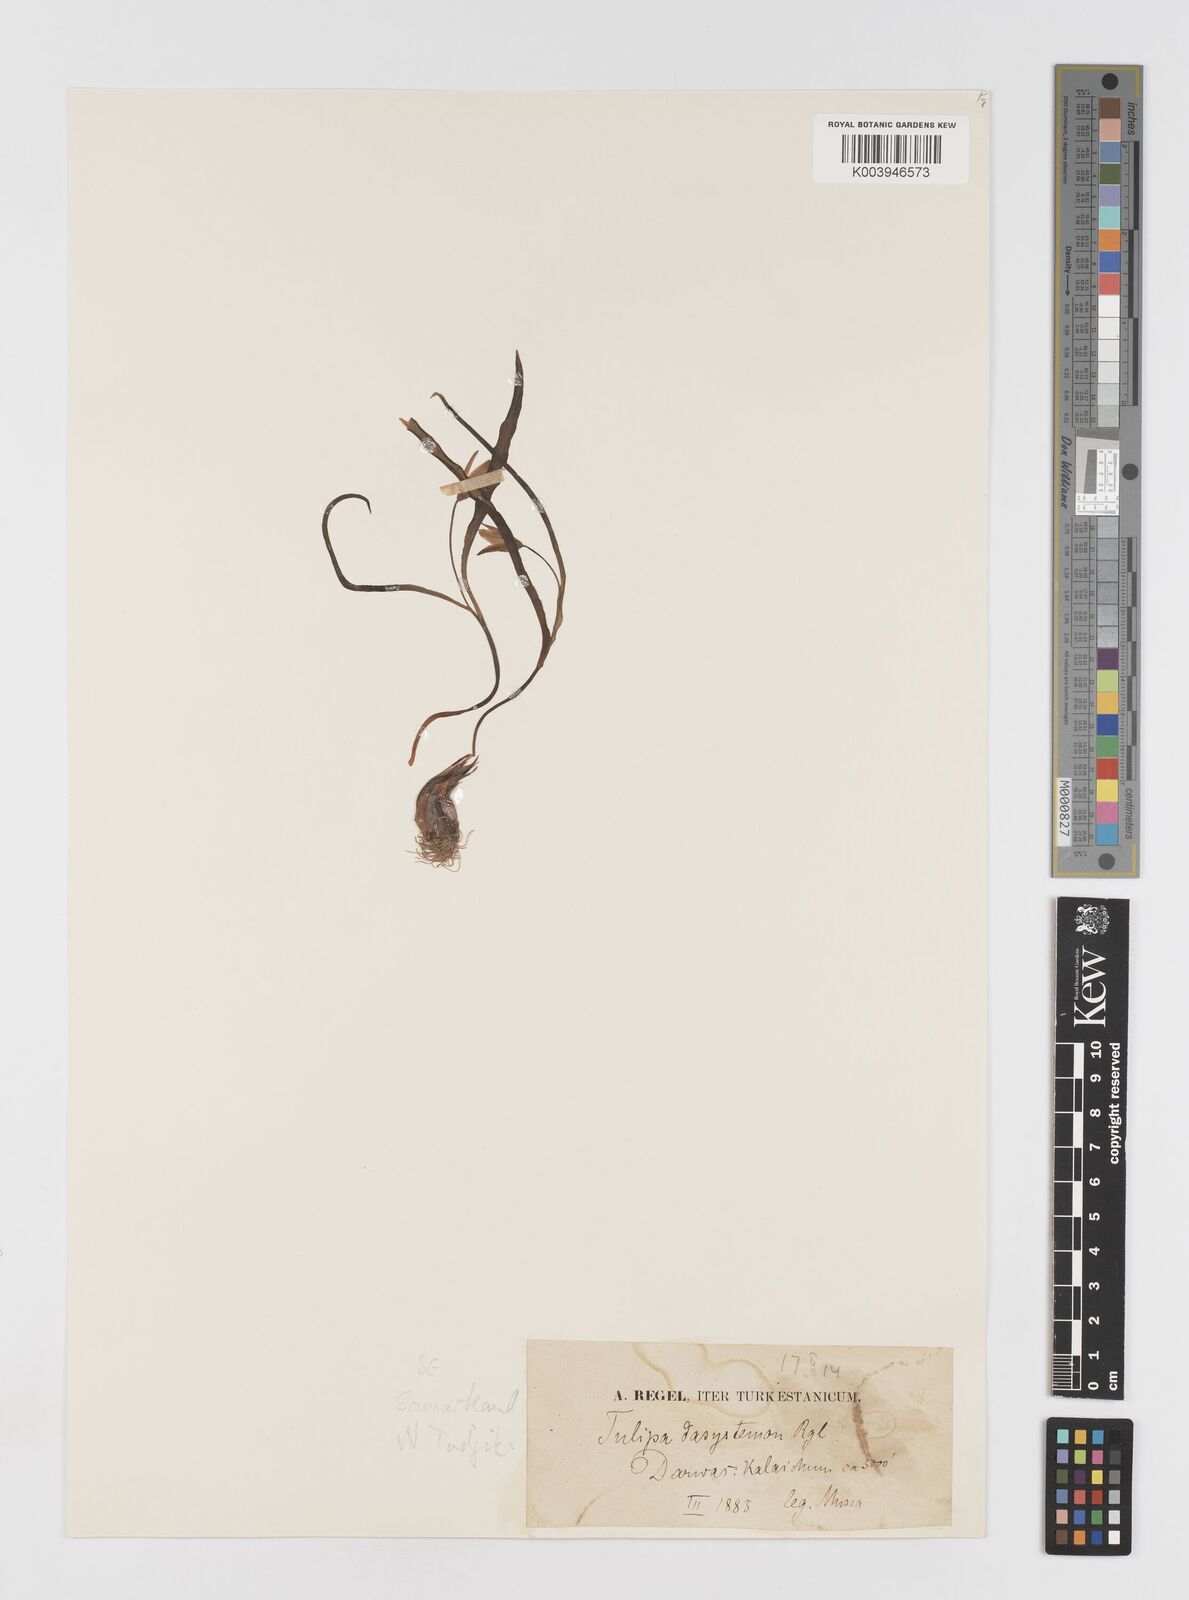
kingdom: Plantae
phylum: Tracheophyta
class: Liliopsida
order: Liliales
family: Liliaceae
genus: Tulipa
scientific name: Tulipa dasystemon
